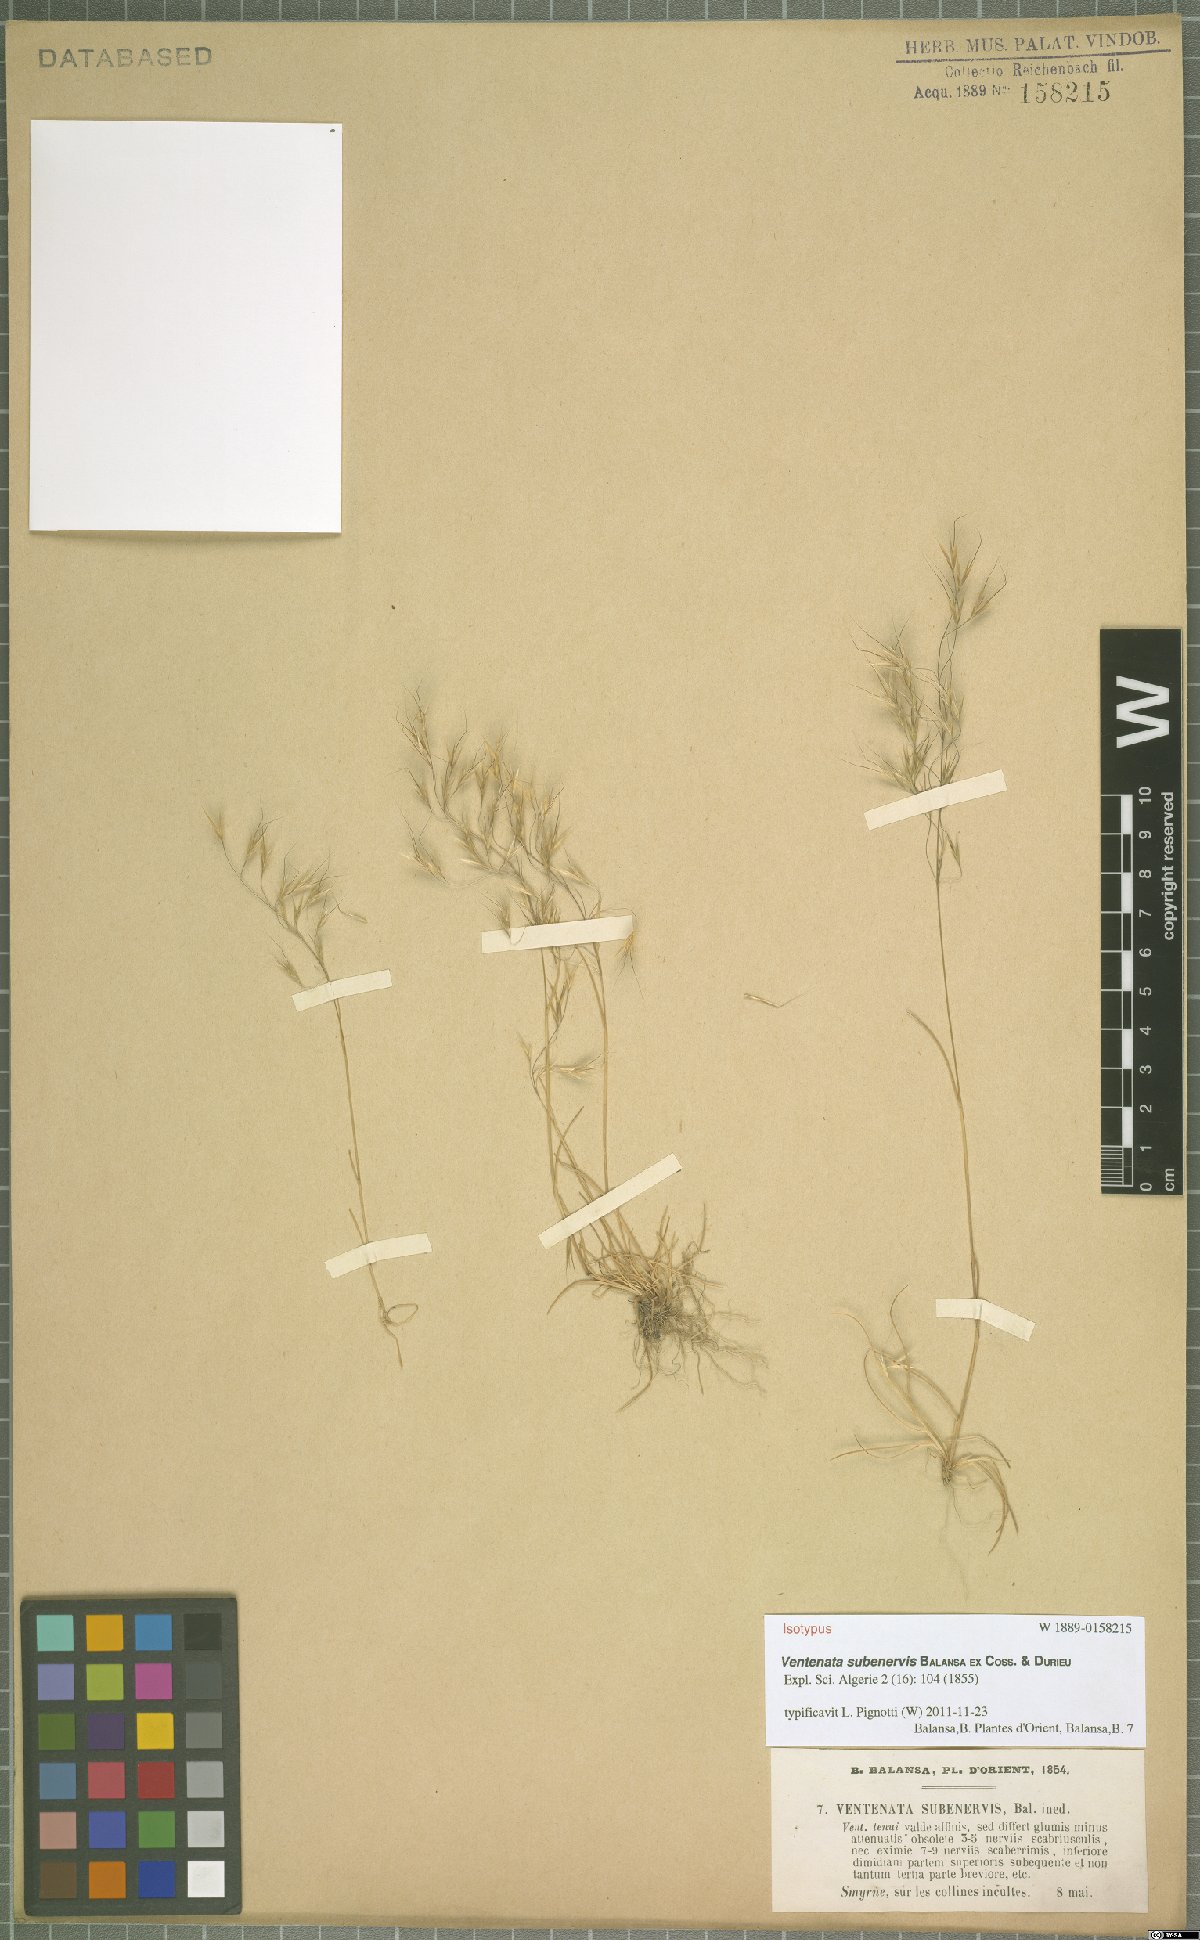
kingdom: Plantae
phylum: Tracheophyta
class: Liliopsida
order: Poales
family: Poaceae
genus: Ventenata
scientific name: Ventenata subenervis
